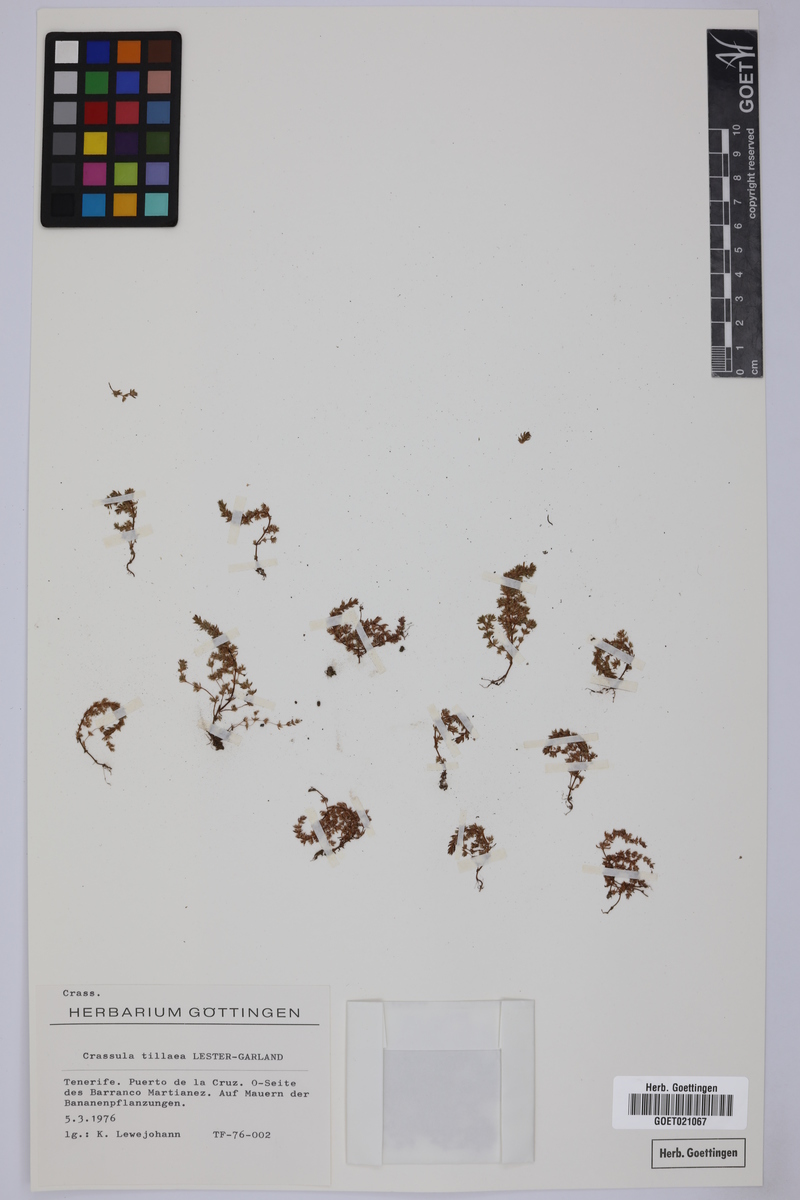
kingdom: Plantae
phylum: Tracheophyta
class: Magnoliopsida
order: Saxifragales
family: Crassulaceae
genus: Crassula
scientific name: Crassula tillaea
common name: Mossy stonecrop
